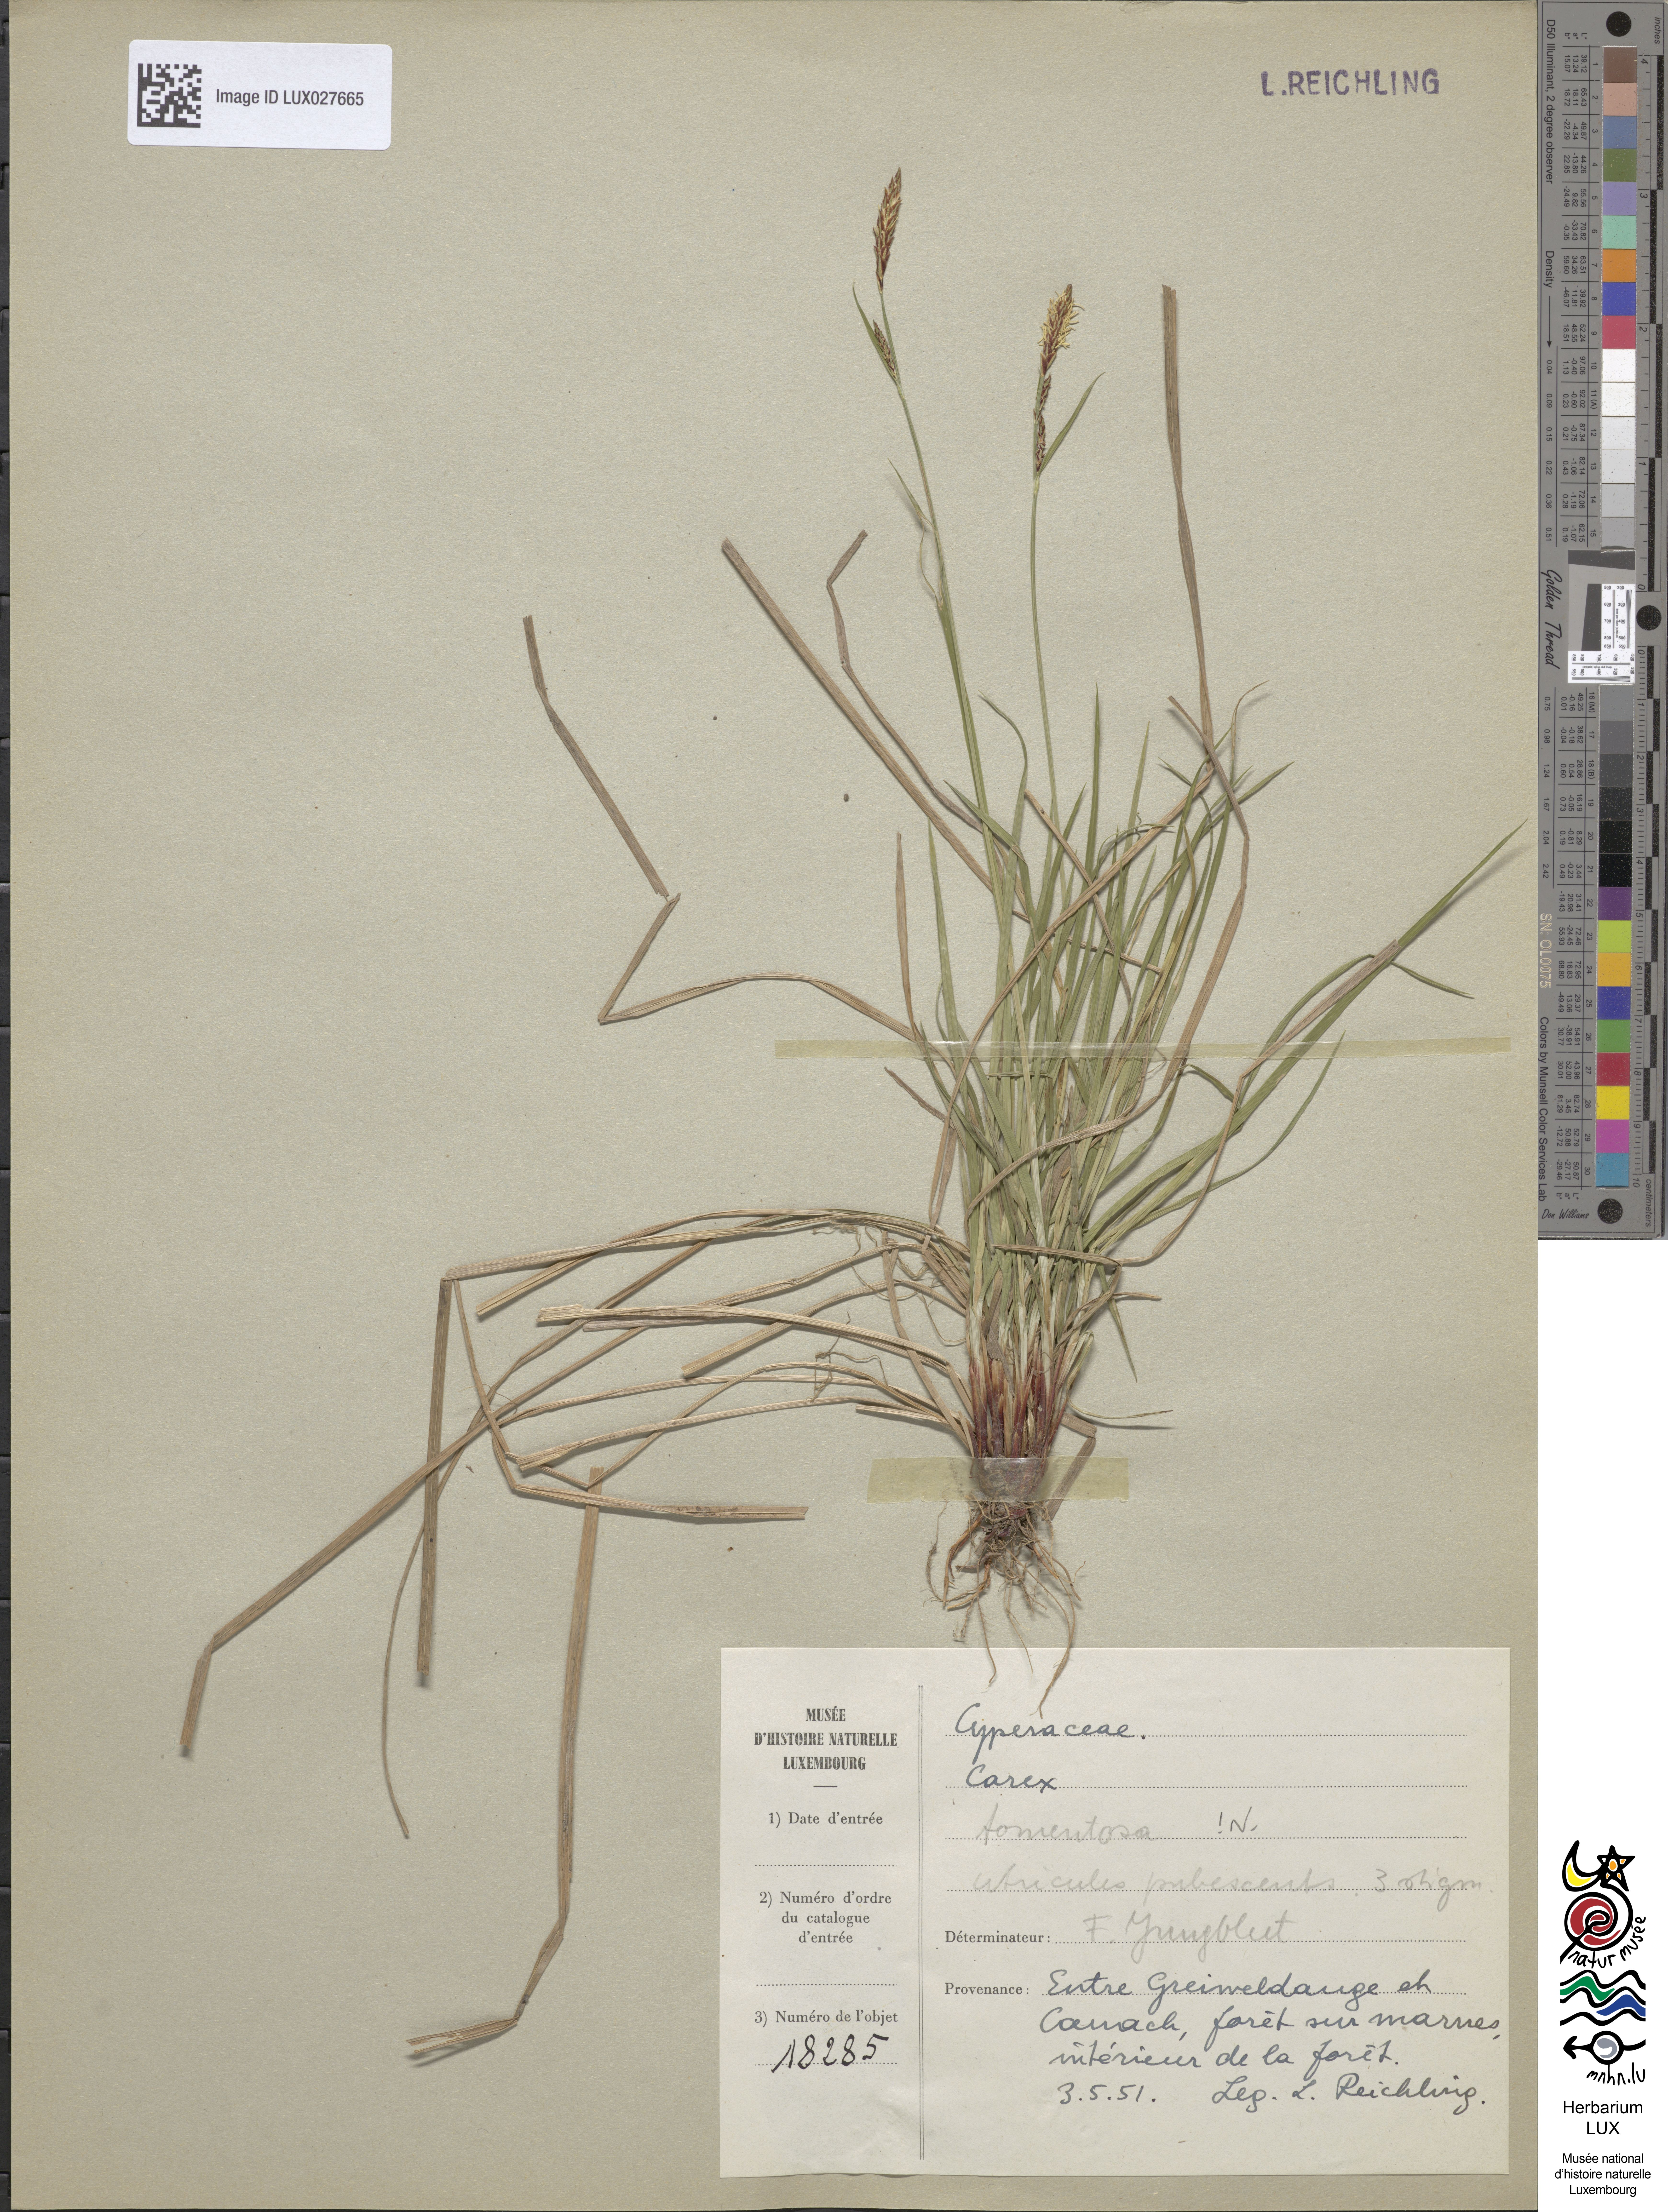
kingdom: Plantae
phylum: Tracheophyta
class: Liliopsida
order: Poales
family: Cyperaceae
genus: Carex
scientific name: Carex tomentosa
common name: Downy-fruited sedge
